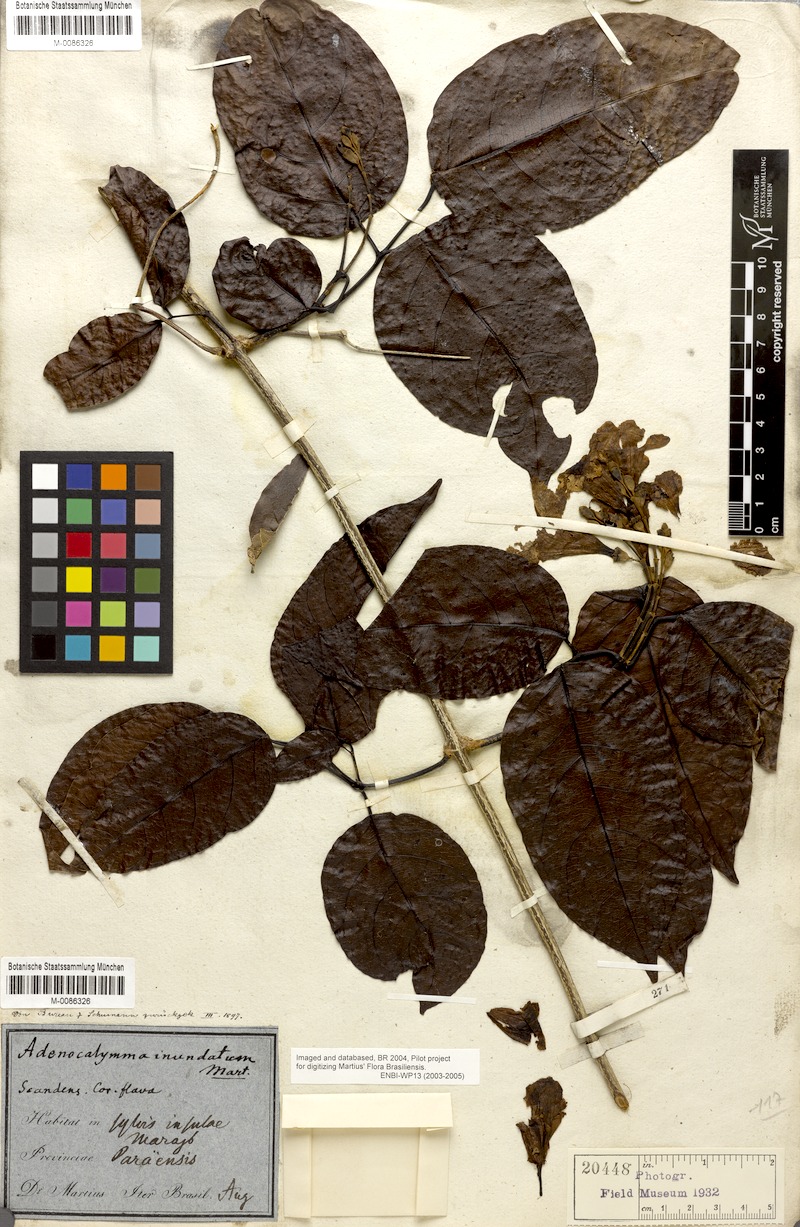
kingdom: Plantae
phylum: Tracheophyta
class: Magnoliopsida
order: Lamiales
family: Bignoniaceae
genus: Adenocalymma
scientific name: Adenocalymma inundatum
